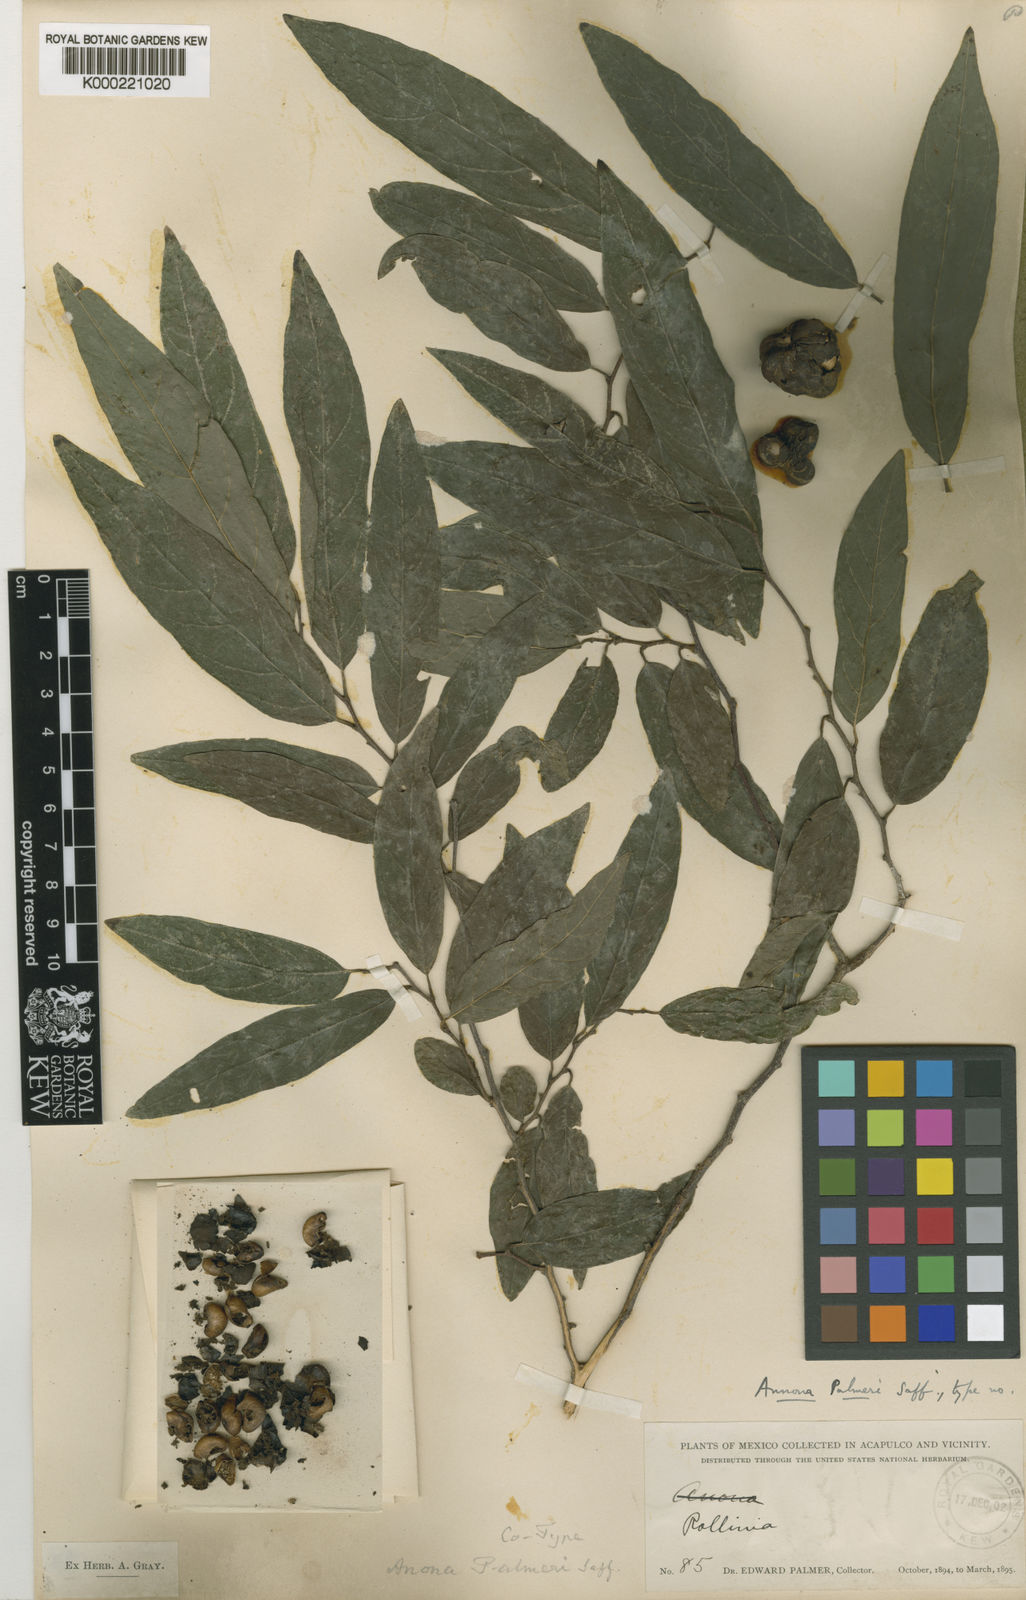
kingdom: Plantae
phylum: Tracheophyta
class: Magnoliopsida
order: Magnoliales
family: Annonaceae
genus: Annona
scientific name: Annona palmeri
